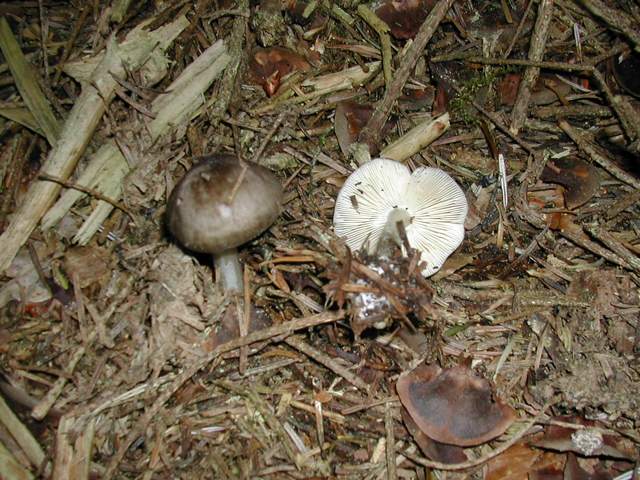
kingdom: Fungi
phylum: Basidiomycota
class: Agaricomycetes
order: Agaricales
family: Pluteaceae
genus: Pluteus
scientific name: Pluteus primus
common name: tidlig skærmhat
